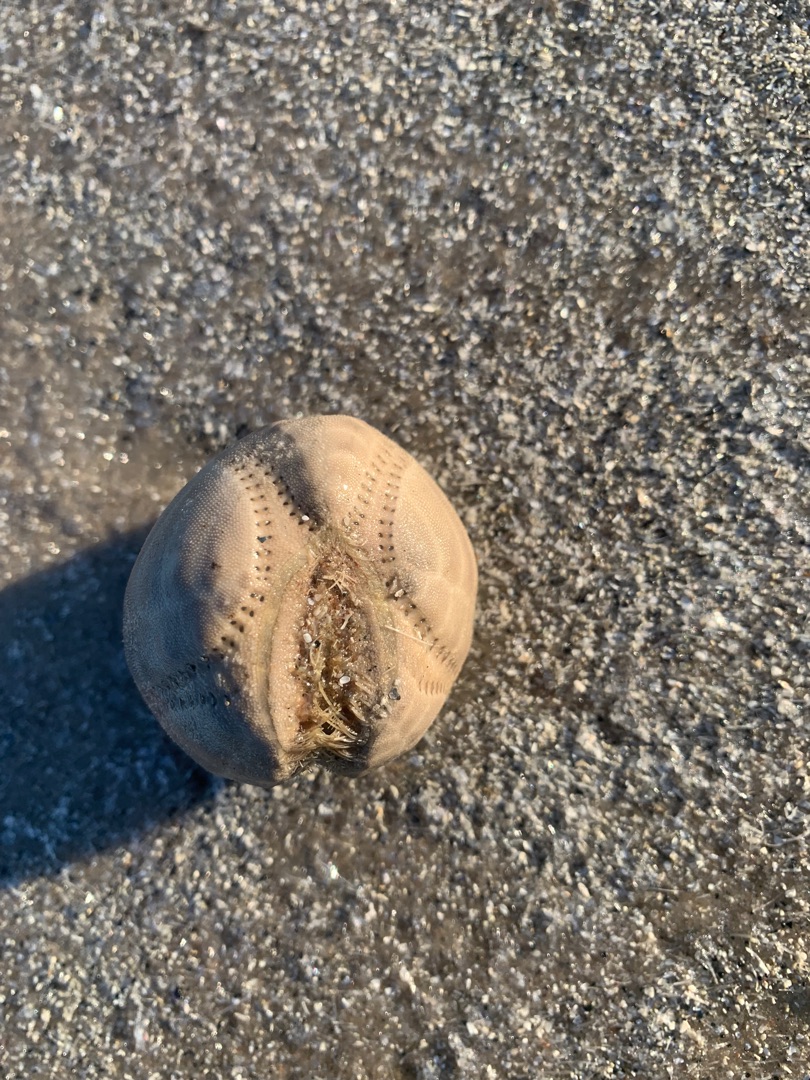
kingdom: Animalia
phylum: Echinodermata
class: Echinoidea
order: Spatangoida
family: Loveniidae
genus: Echinocardium
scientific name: Echinocardium cordatum
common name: Almindelig sømus
